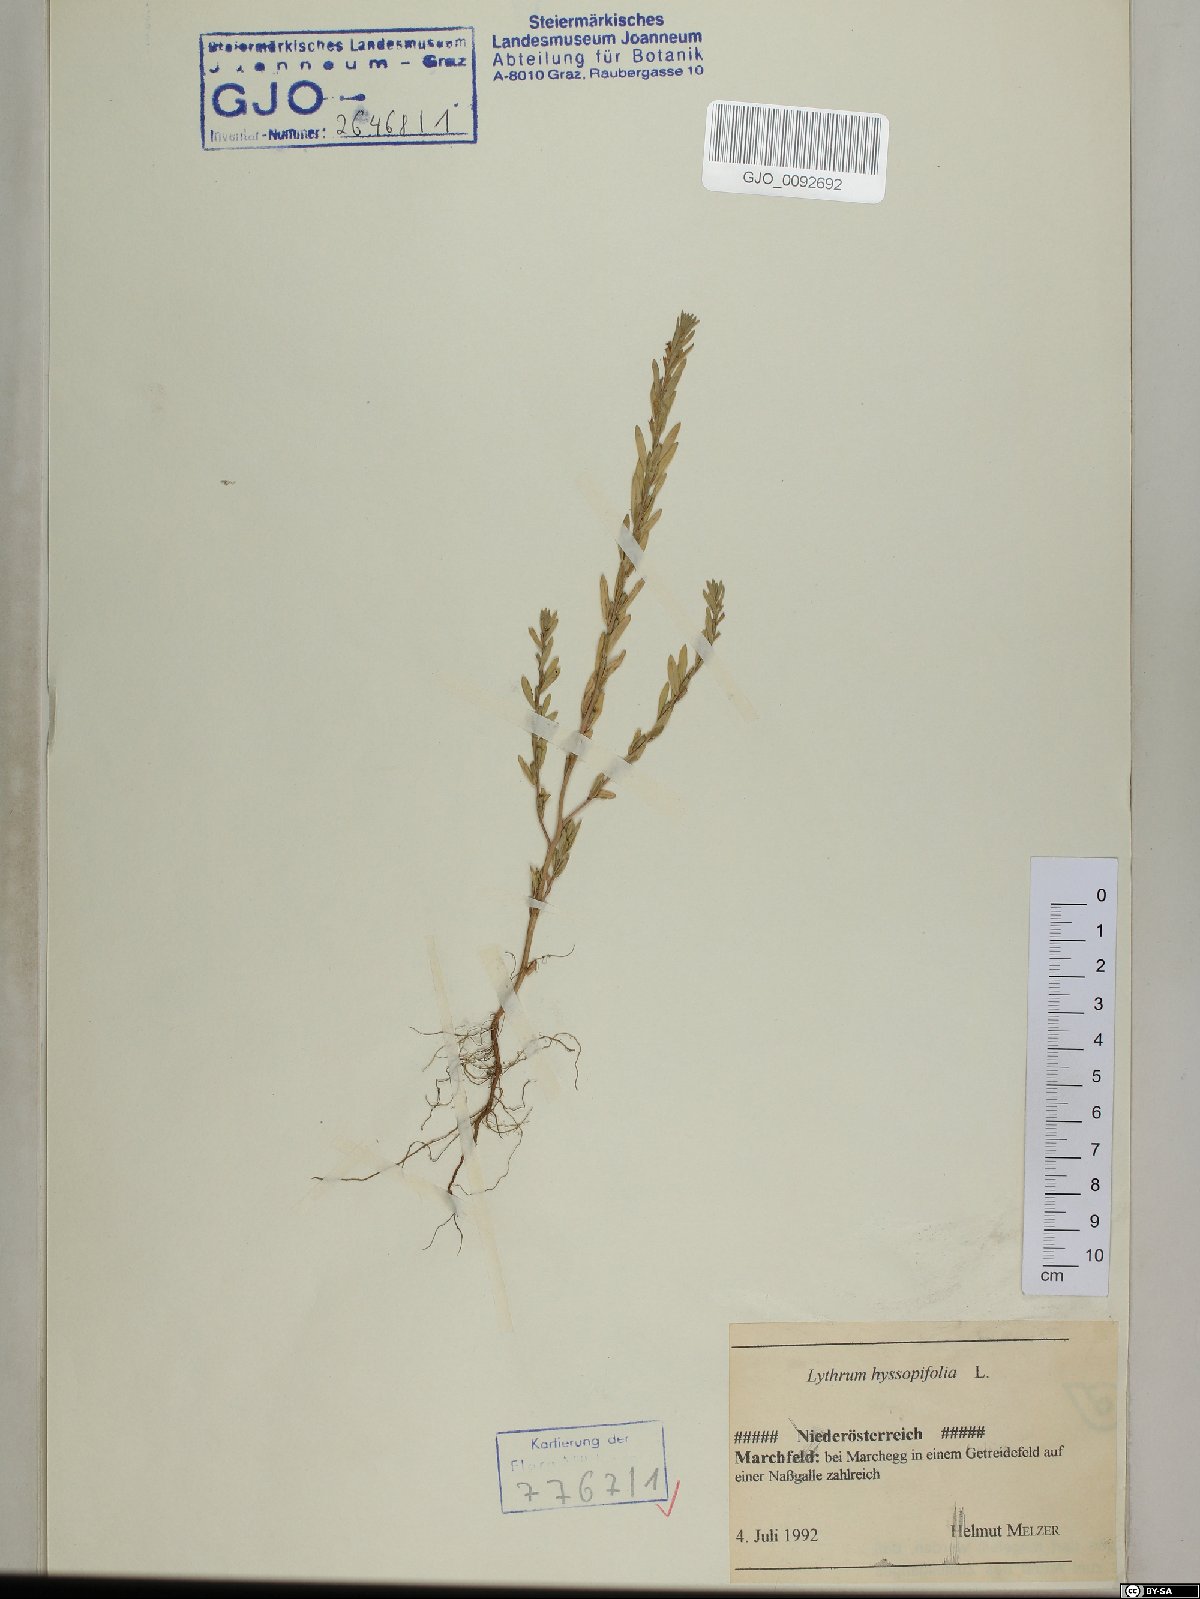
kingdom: Plantae
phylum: Tracheophyta
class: Magnoliopsida
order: Myrtales
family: Lythraceae
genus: Lythrum
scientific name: Lythrum hyssopifolia
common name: Grass-poly
